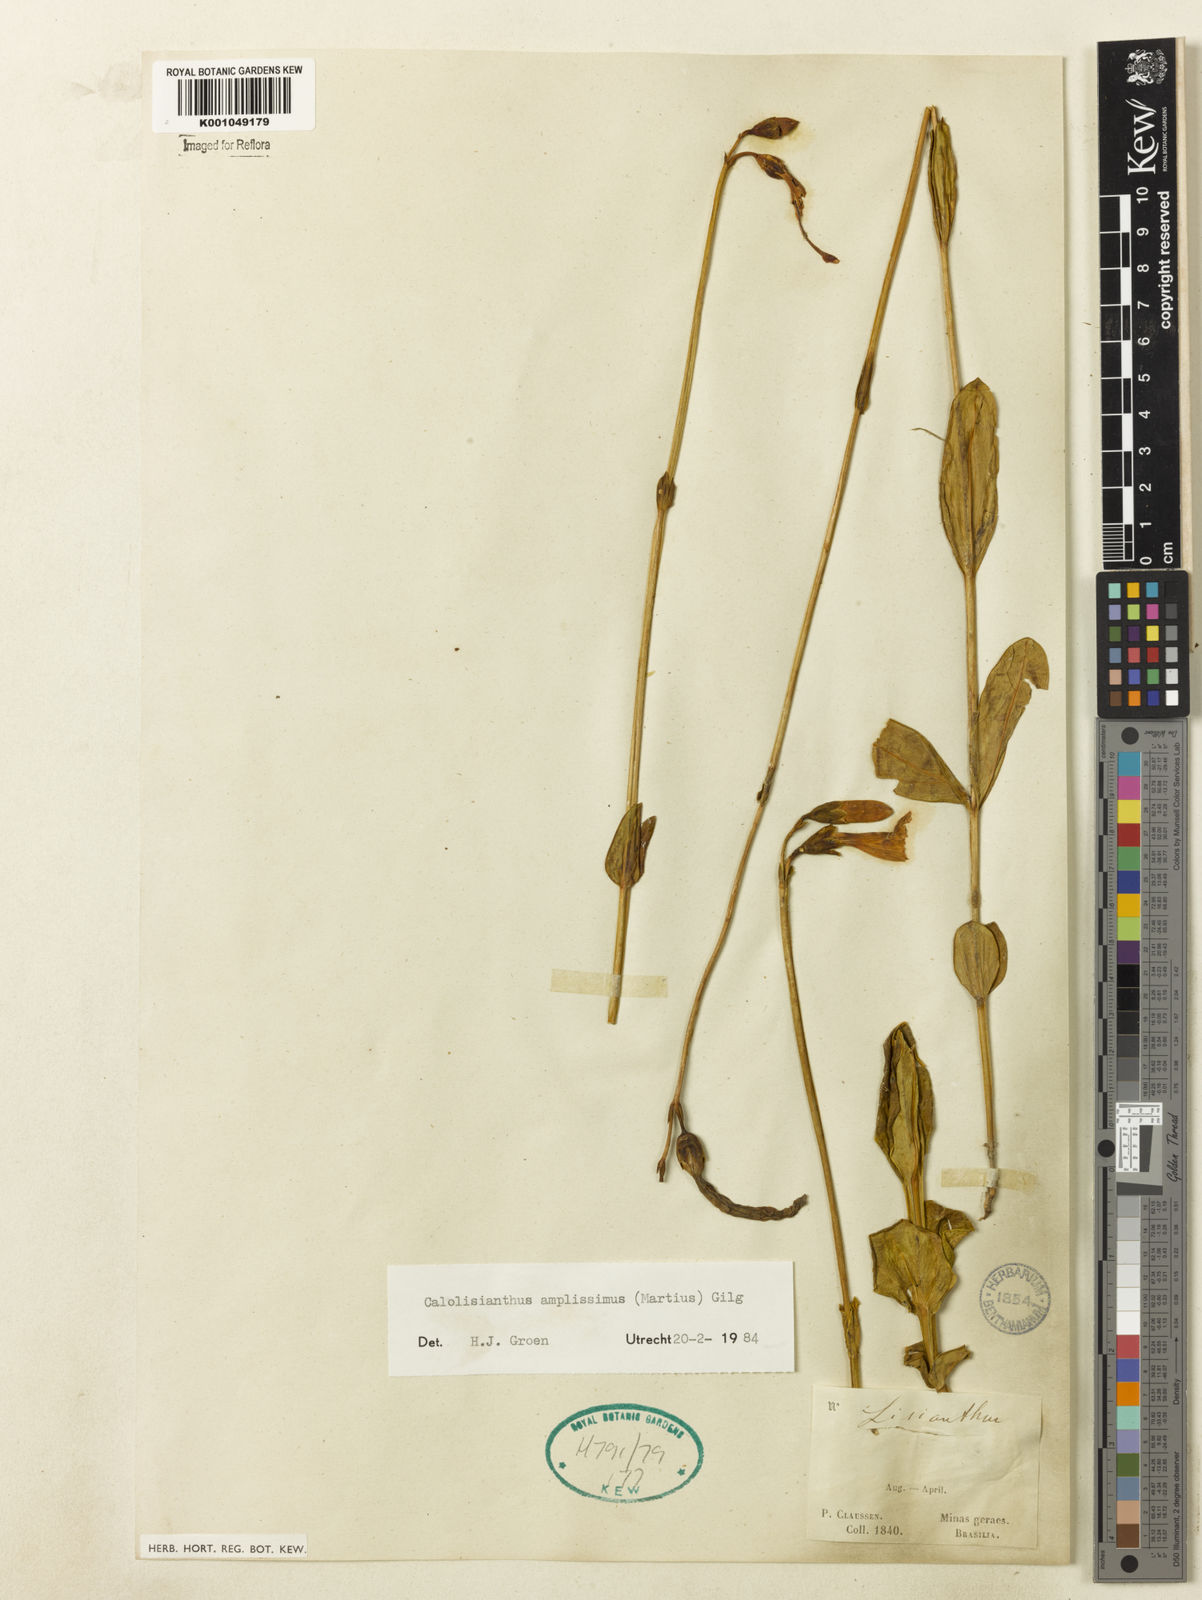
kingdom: Plantae
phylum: Tracheophyta
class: Magnoliopsida
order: Gentianales
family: Gentianaceae
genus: Calolisianthus
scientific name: Calolisianthus amplissimus
